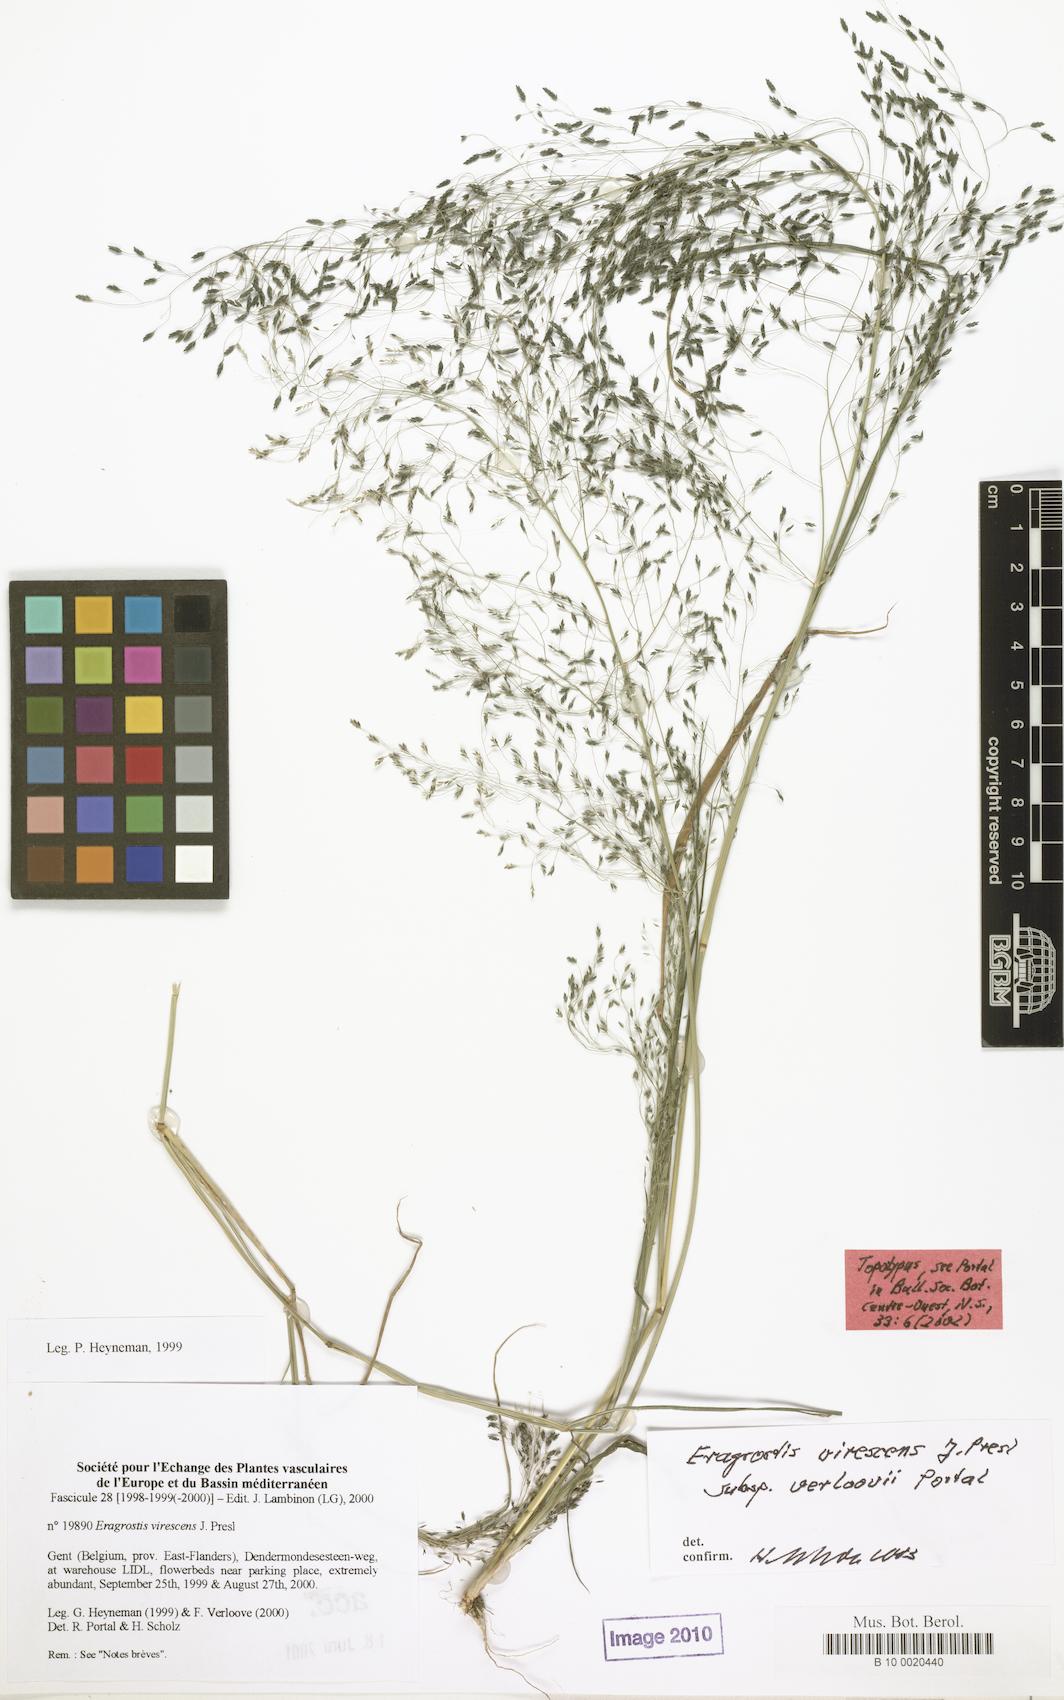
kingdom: Plantae
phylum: Tracheophyta
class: Liliopsida
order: Poales
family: Poaceae
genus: Eragrostis
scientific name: Eragrostis mexicana
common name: Mexican love grass
